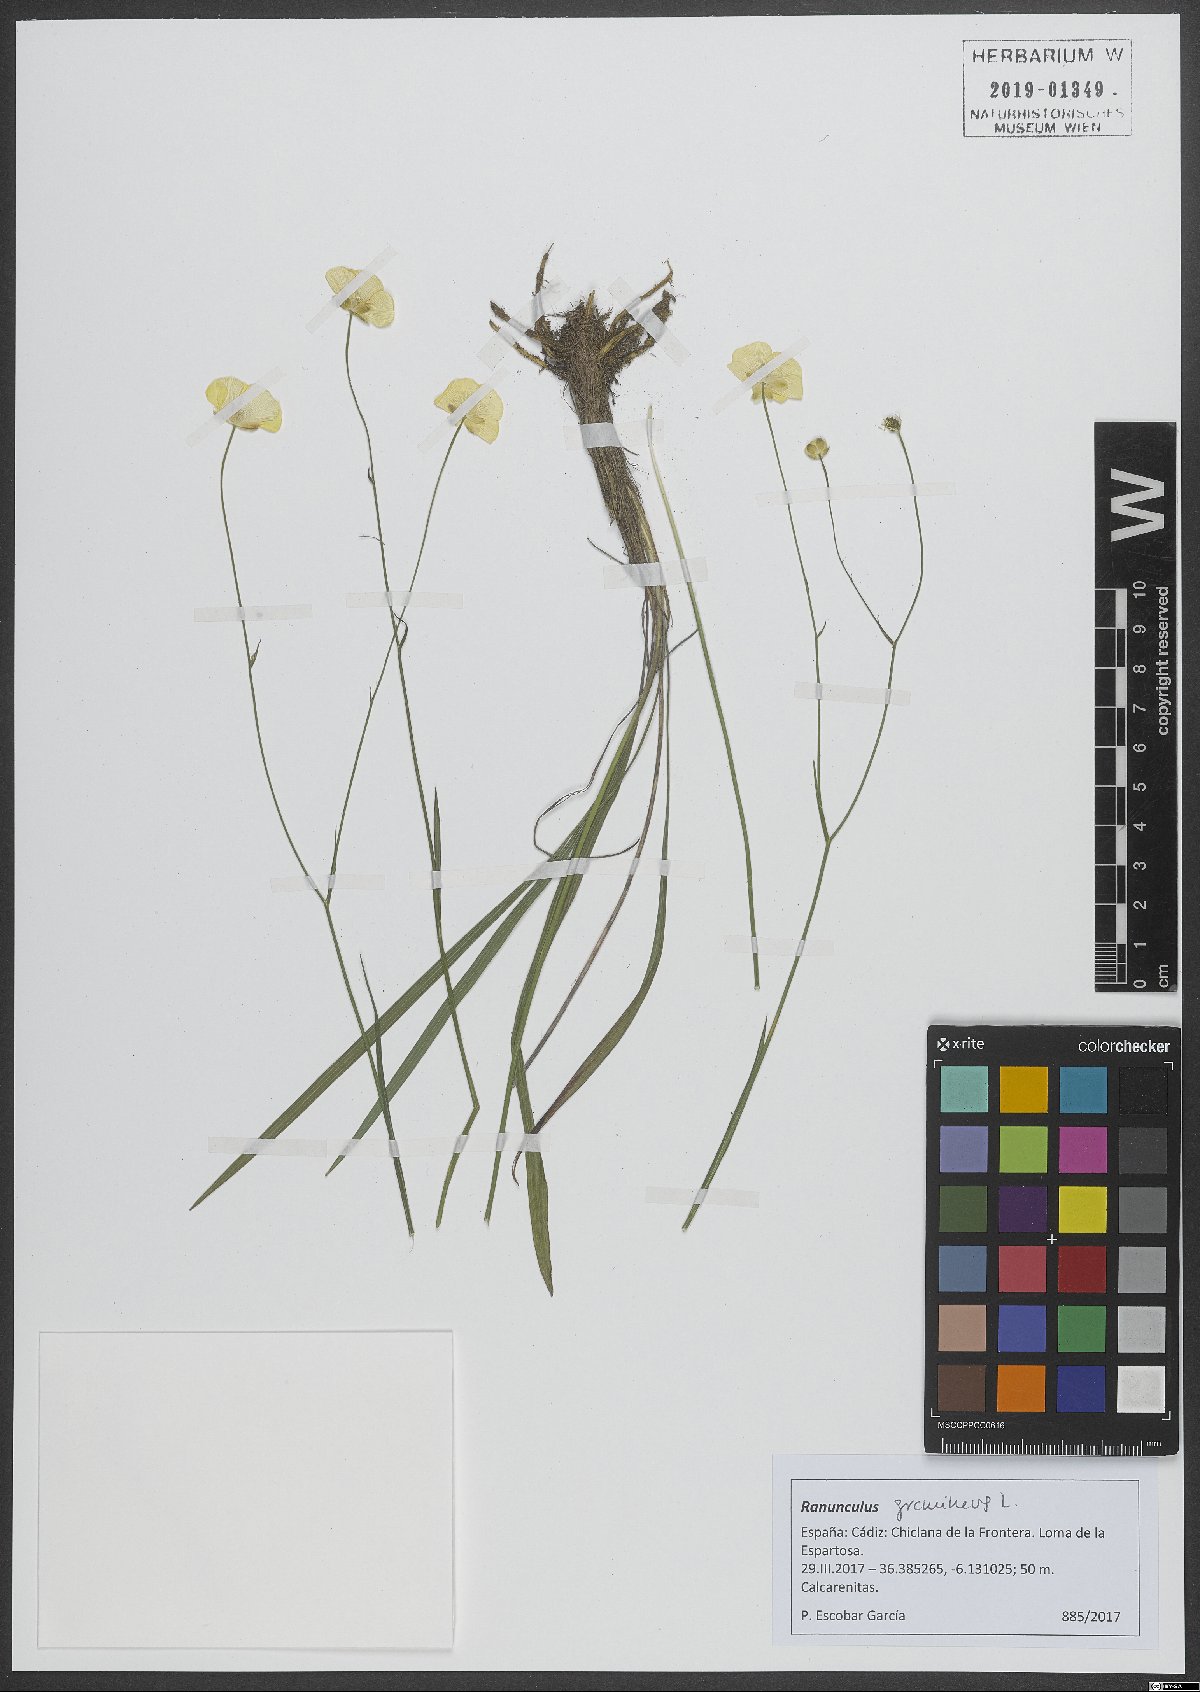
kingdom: Plantae
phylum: Tracheophyta
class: Magnoliopsida
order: Ranunculales
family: Ranunculaceae
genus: Ranunculus
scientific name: Ranunculus gramineus
